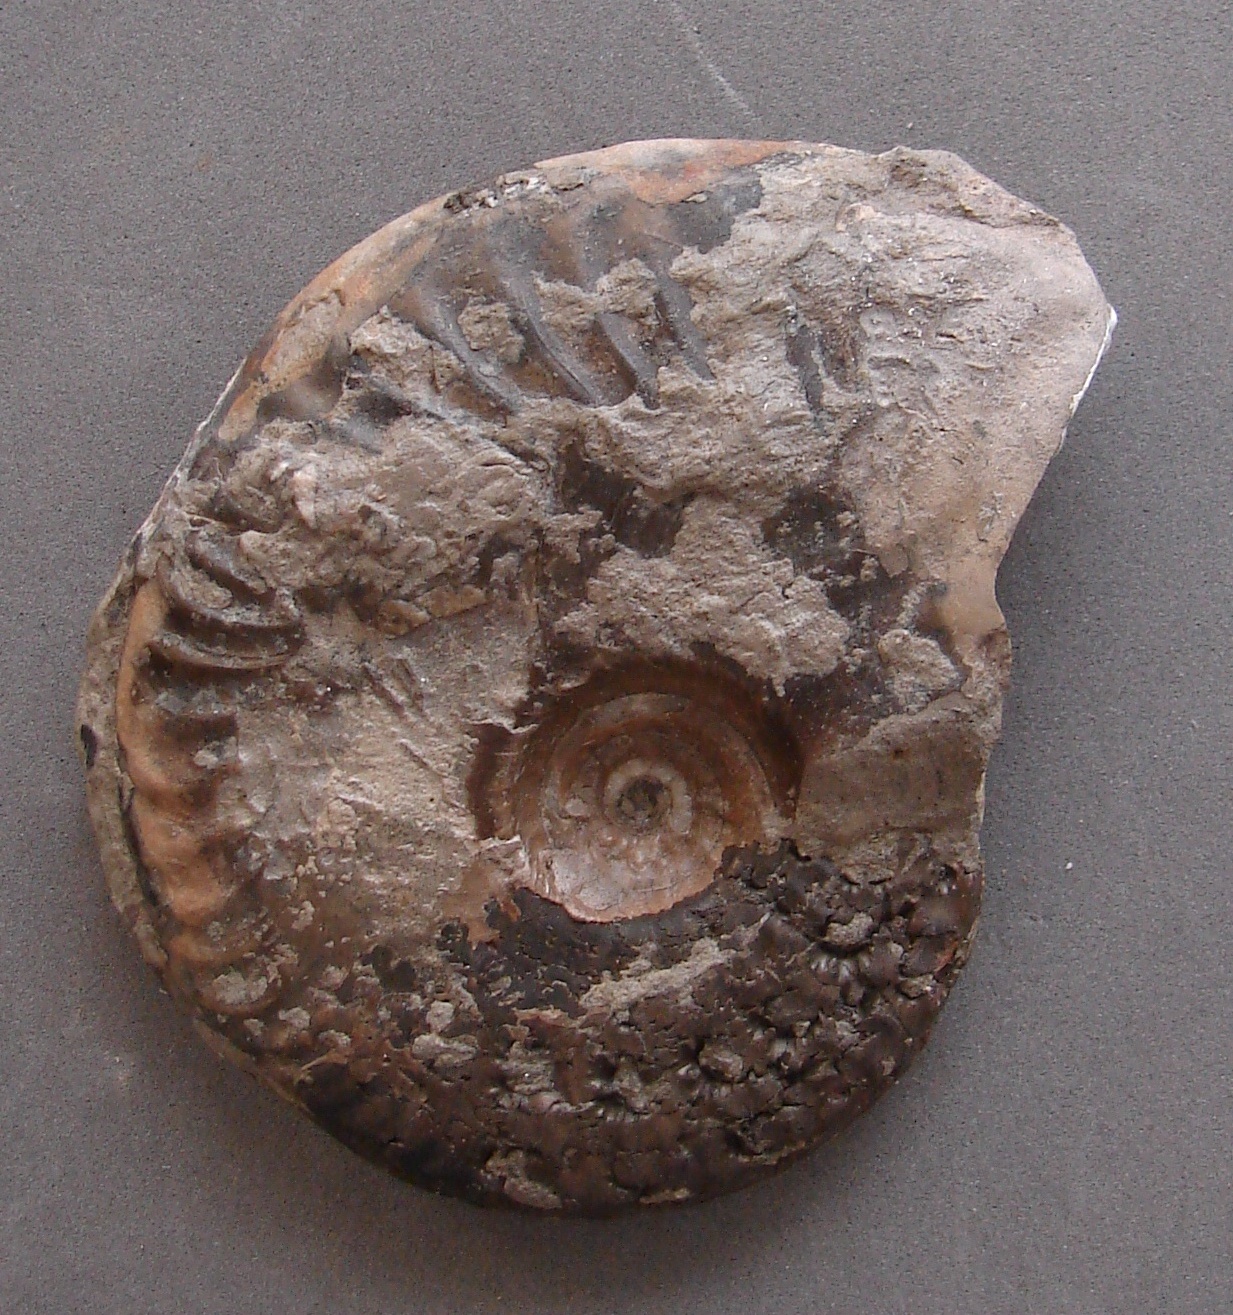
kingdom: Animalia
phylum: Mollusca
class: Cephalopoda
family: Graphoceratidae
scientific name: Graphoceratidae
